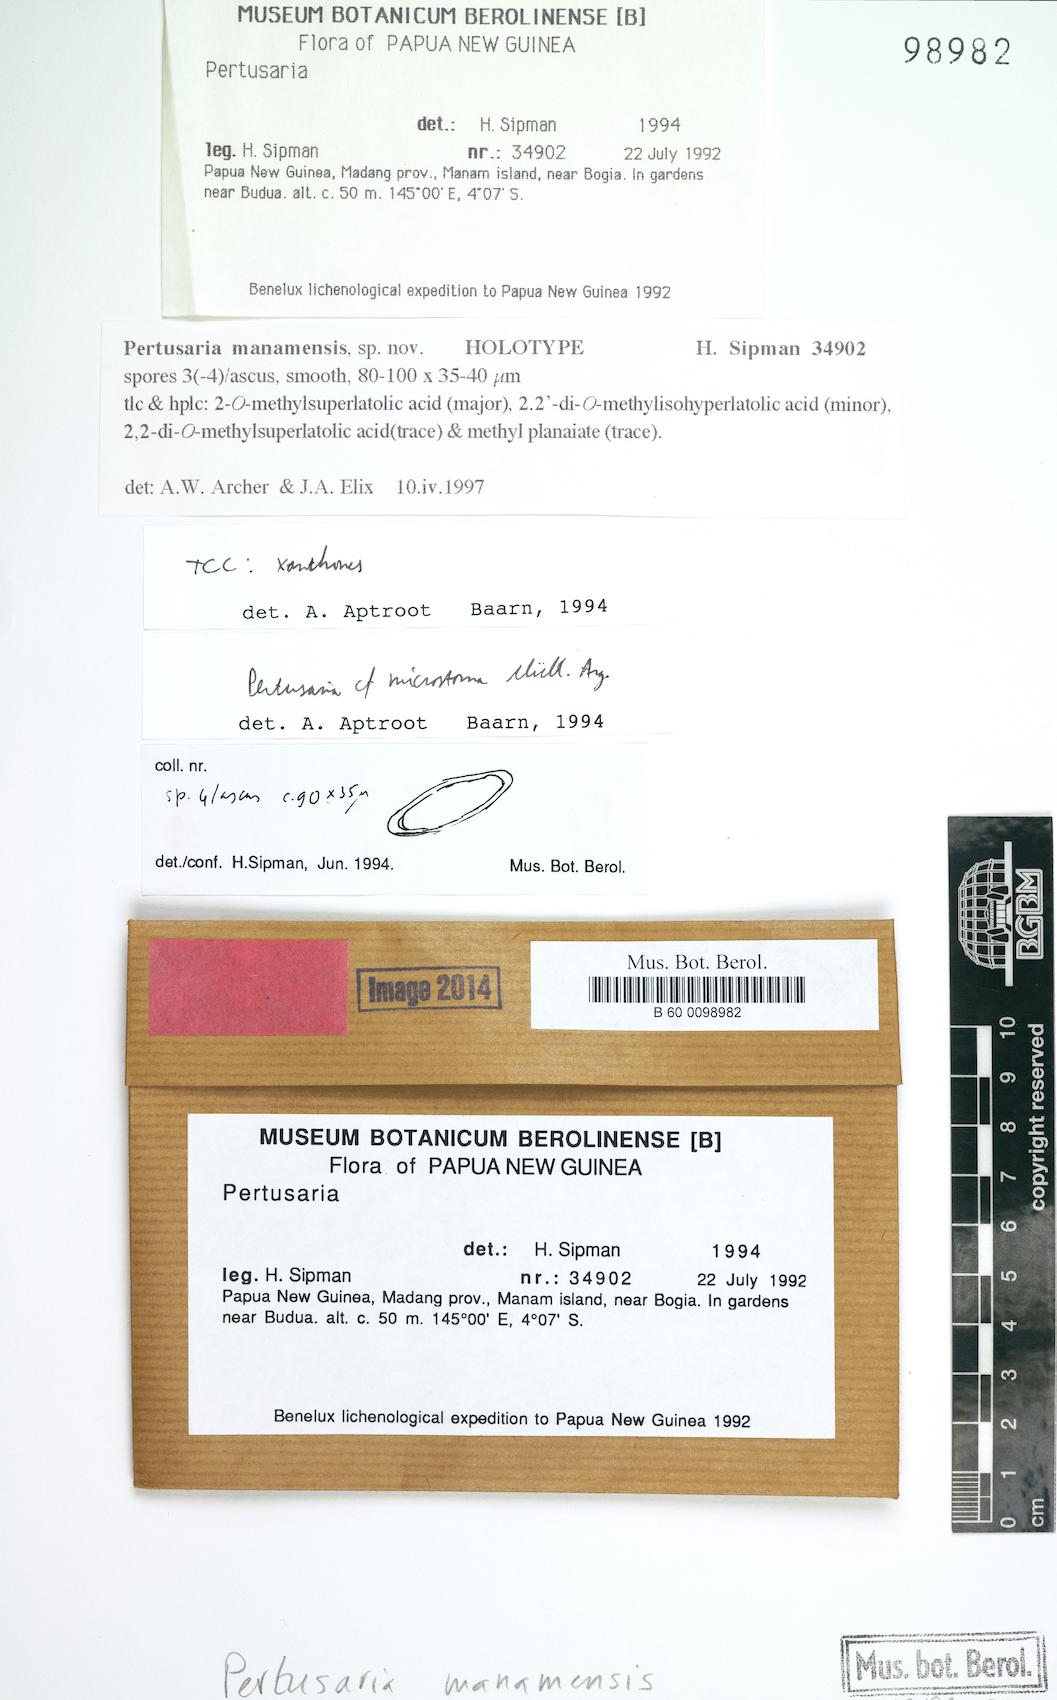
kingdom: Fungi
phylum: Ascomycota
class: Lecanoromycetes
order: Pertusariales
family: Pertusariaceae
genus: Pertusaria
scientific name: Pertusaria mankiensis
